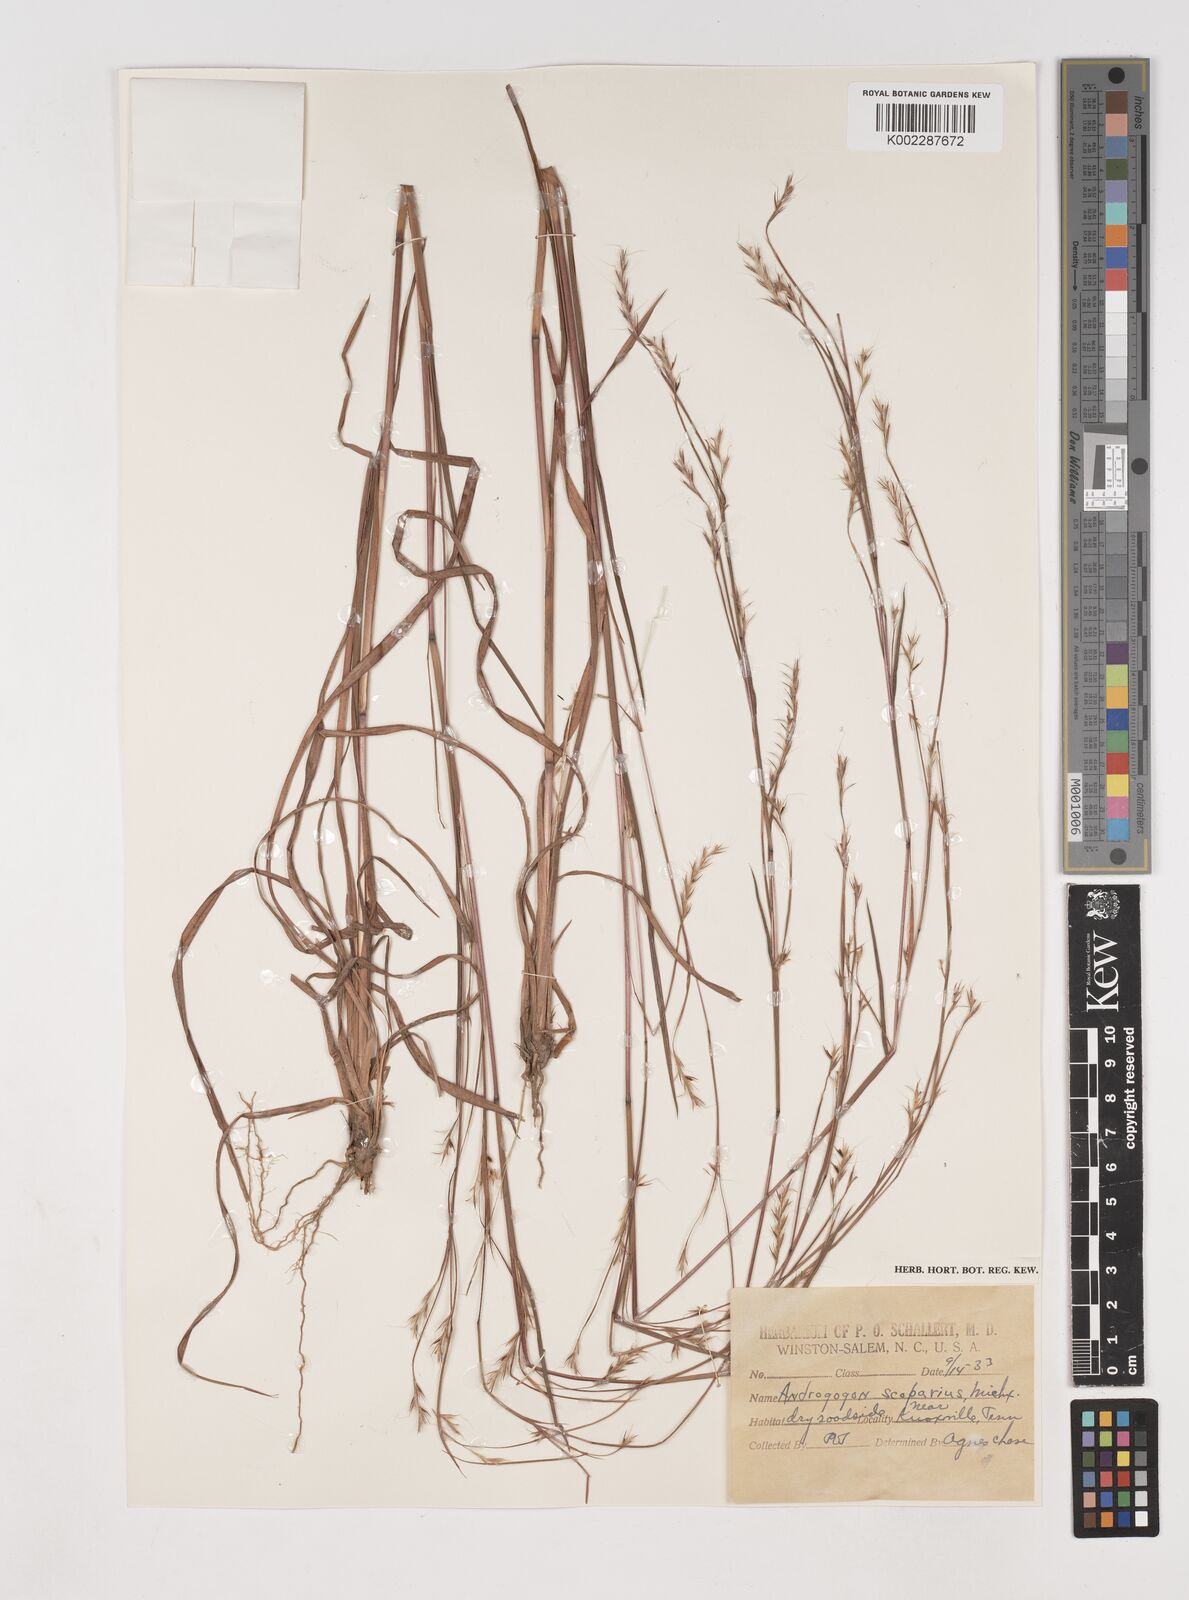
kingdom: Plantae
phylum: Tracheophyta
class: Liliopsida
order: Poales
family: Poaceae
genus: Schizachyrium
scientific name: Schizachyrium scoparium
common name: Little bluestem
